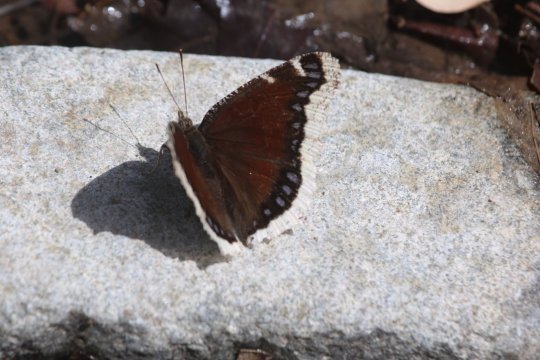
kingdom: Animalia
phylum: Arthropoda
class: Insecta
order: Lepidoptera
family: Nymphalidae
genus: Nymphalis
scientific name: Nymphalis antiopa
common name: Mourning Cloak
